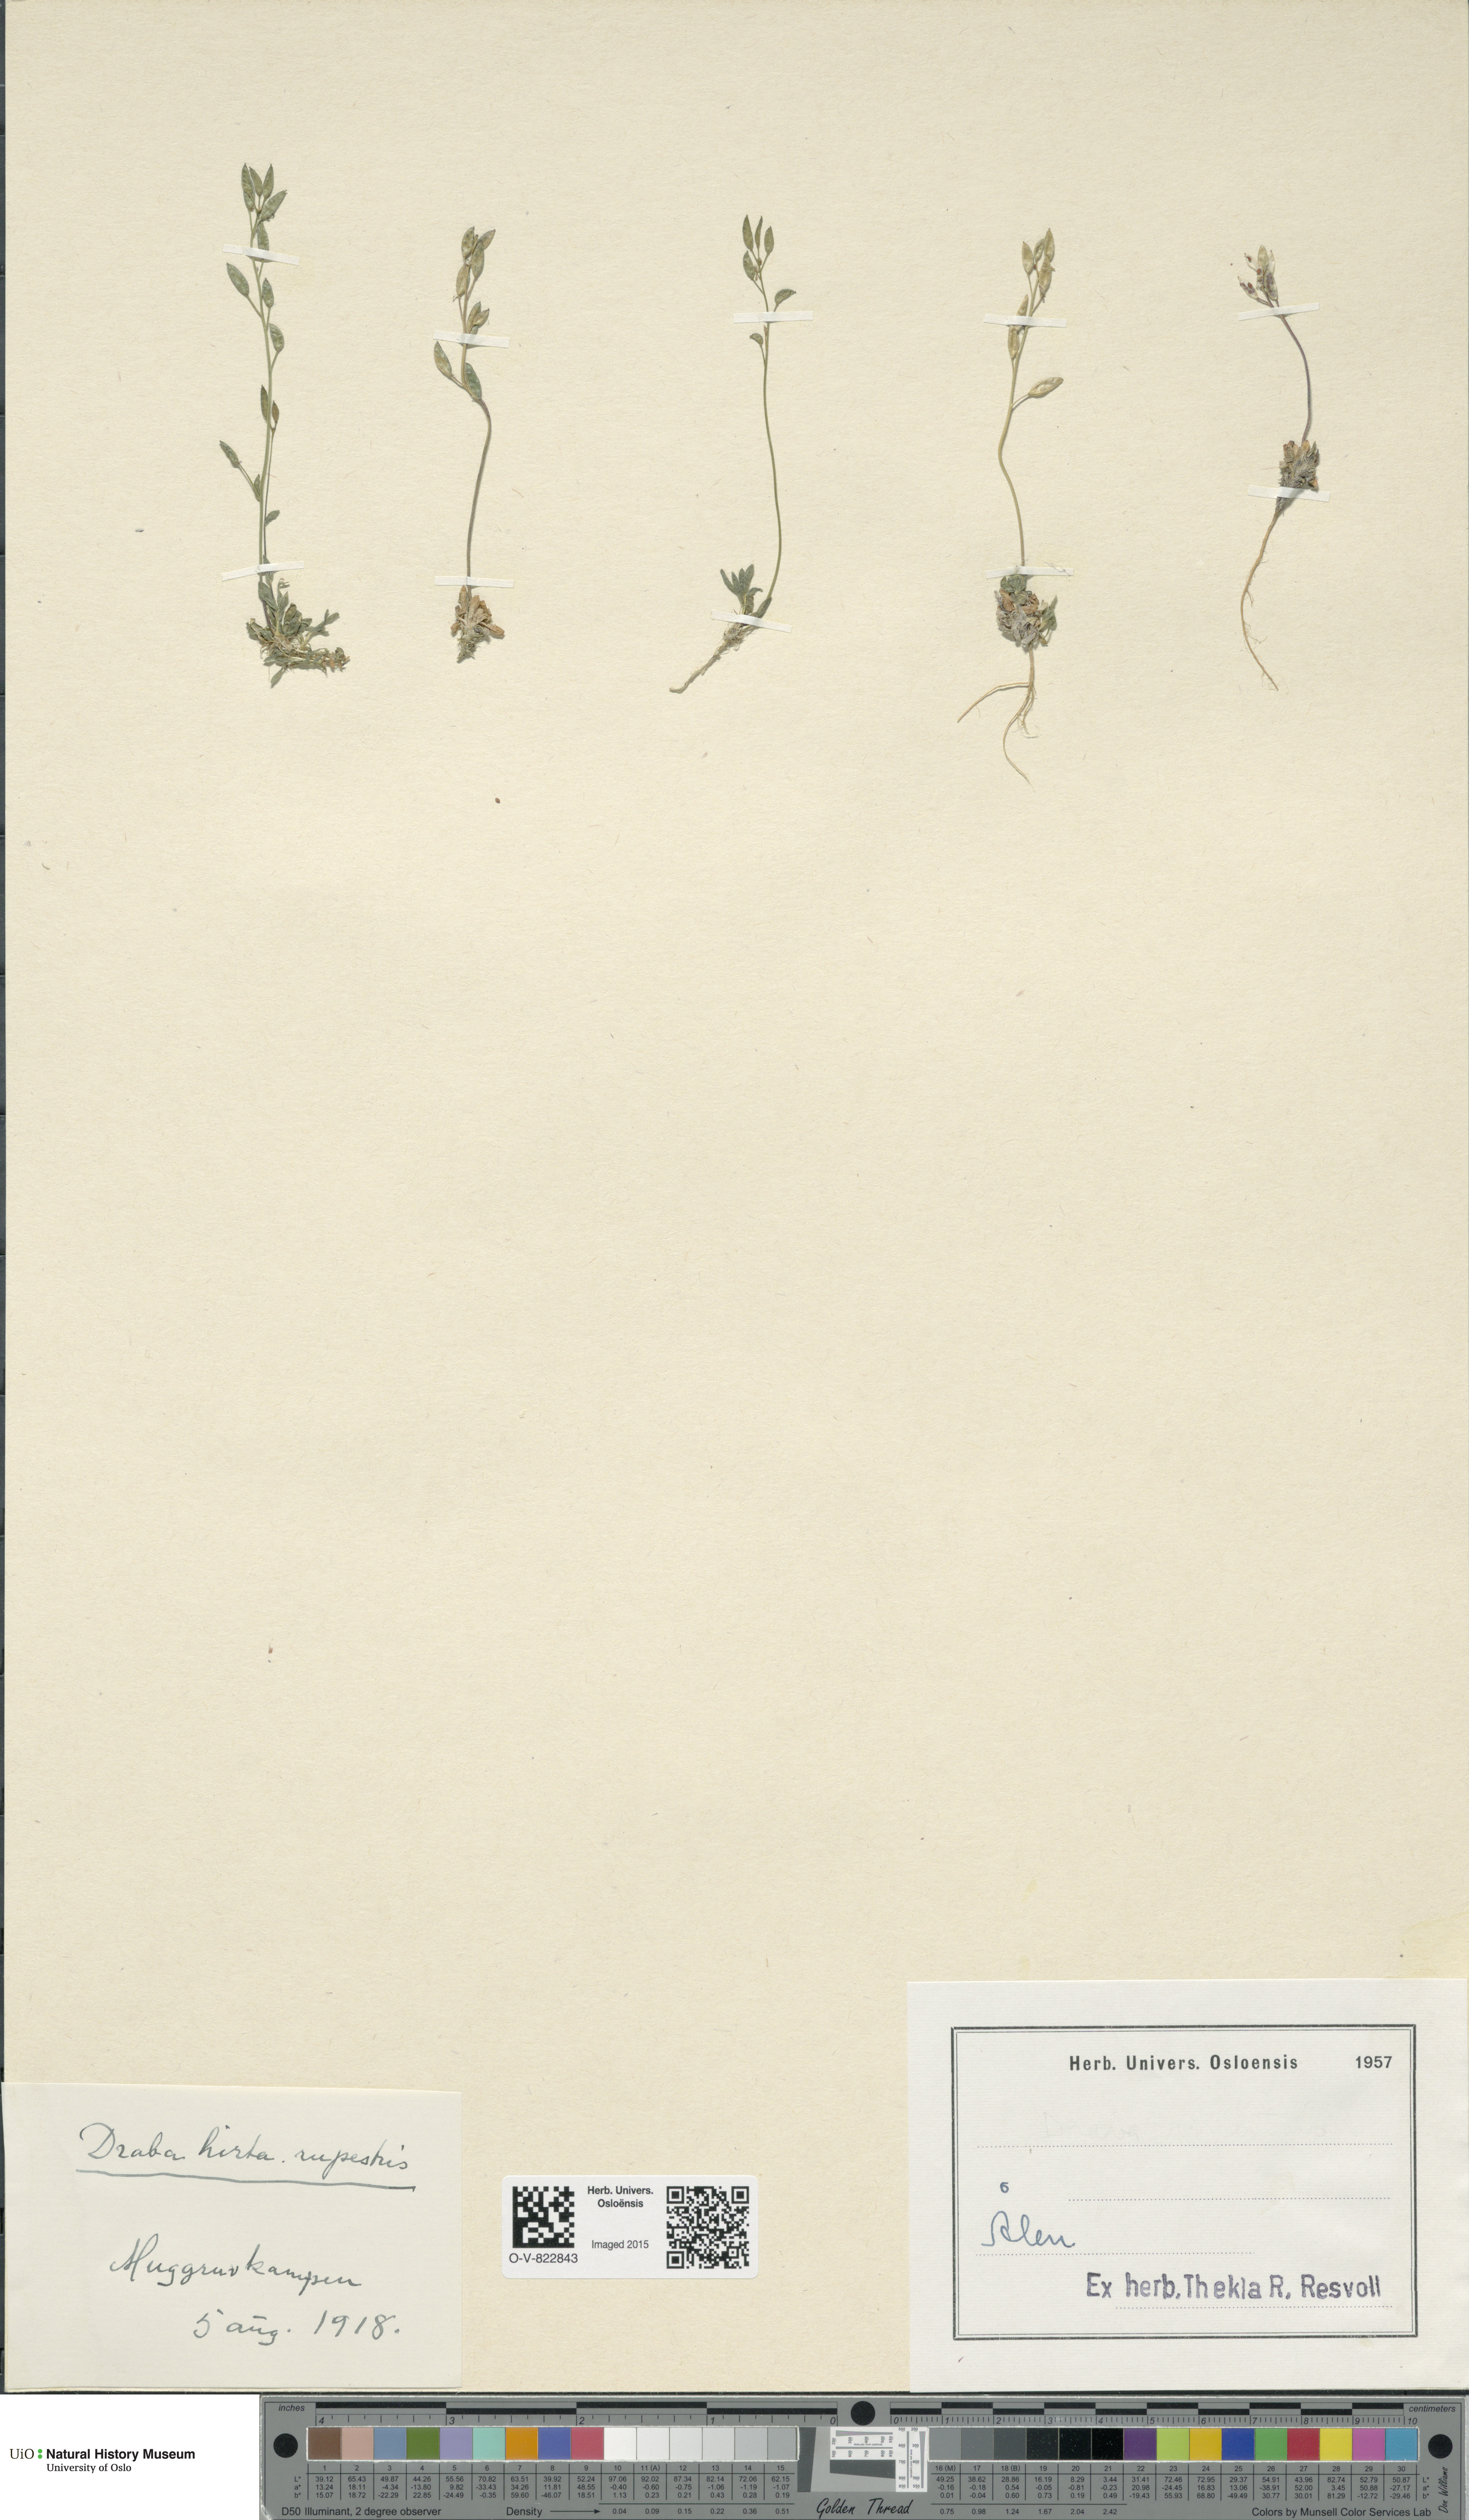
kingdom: Plantae
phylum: Tracheophyta
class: Magnoliopsida
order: Brassicales
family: Brassicaceae
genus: Draba
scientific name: Draba norvegica
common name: Rock whitlowgrass
